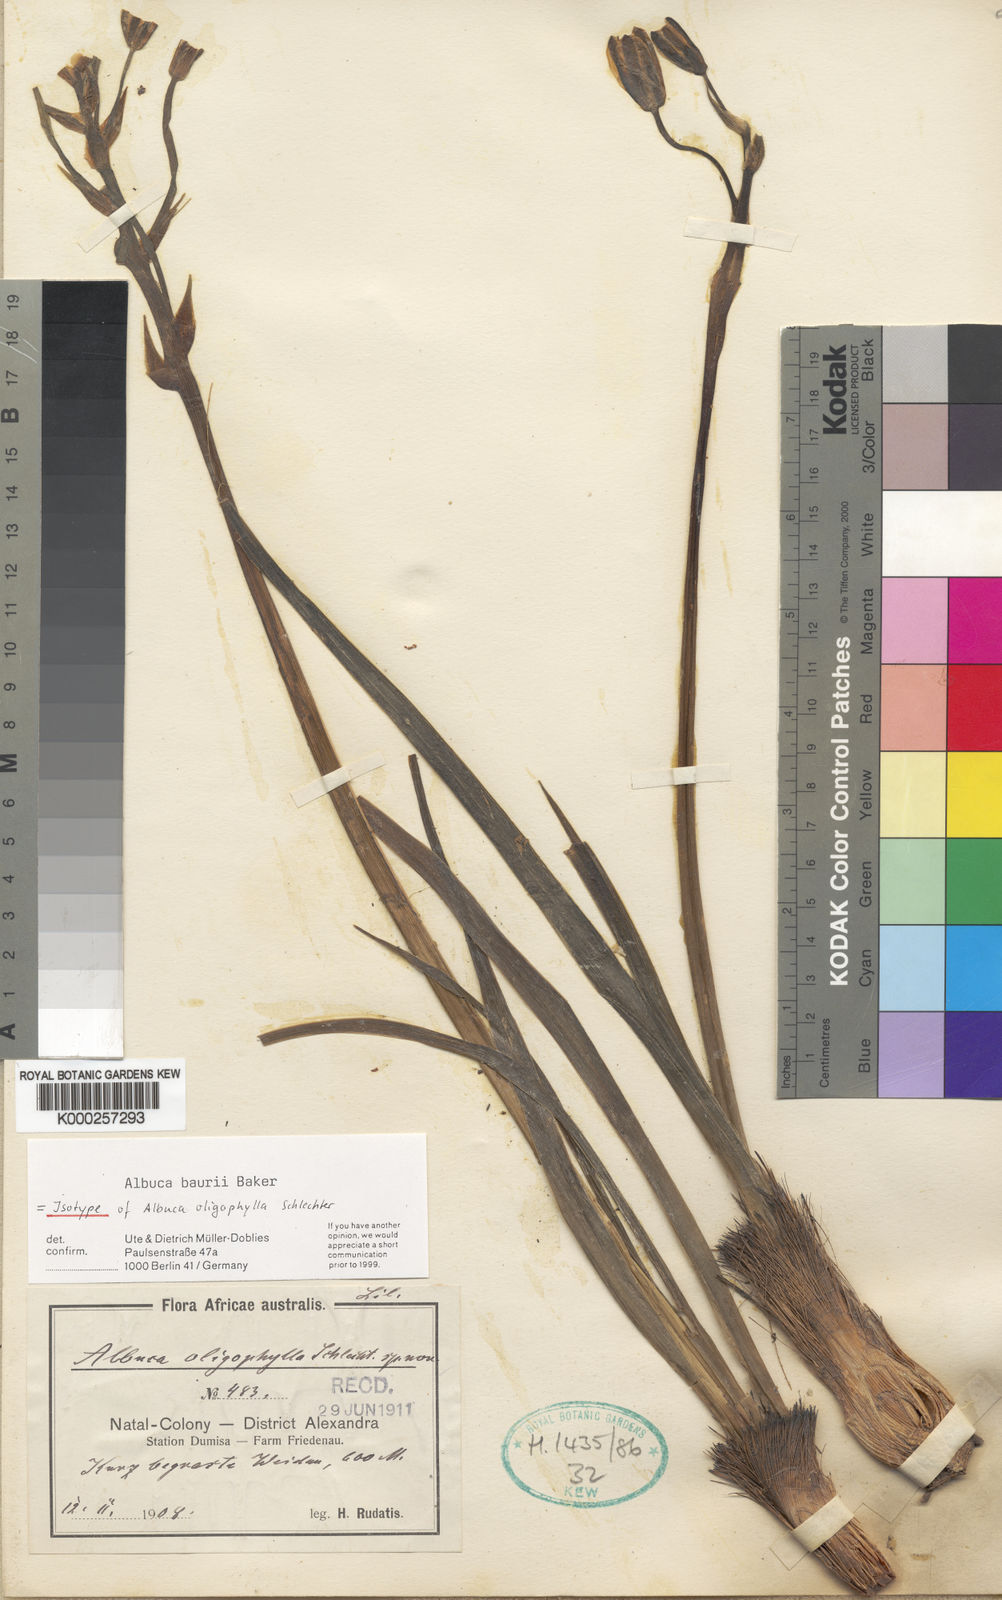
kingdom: Plantae
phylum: Tracheophyta
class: Liliopsida
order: Asparagales
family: Asparagaceae
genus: Albuca
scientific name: Albuca setosa
